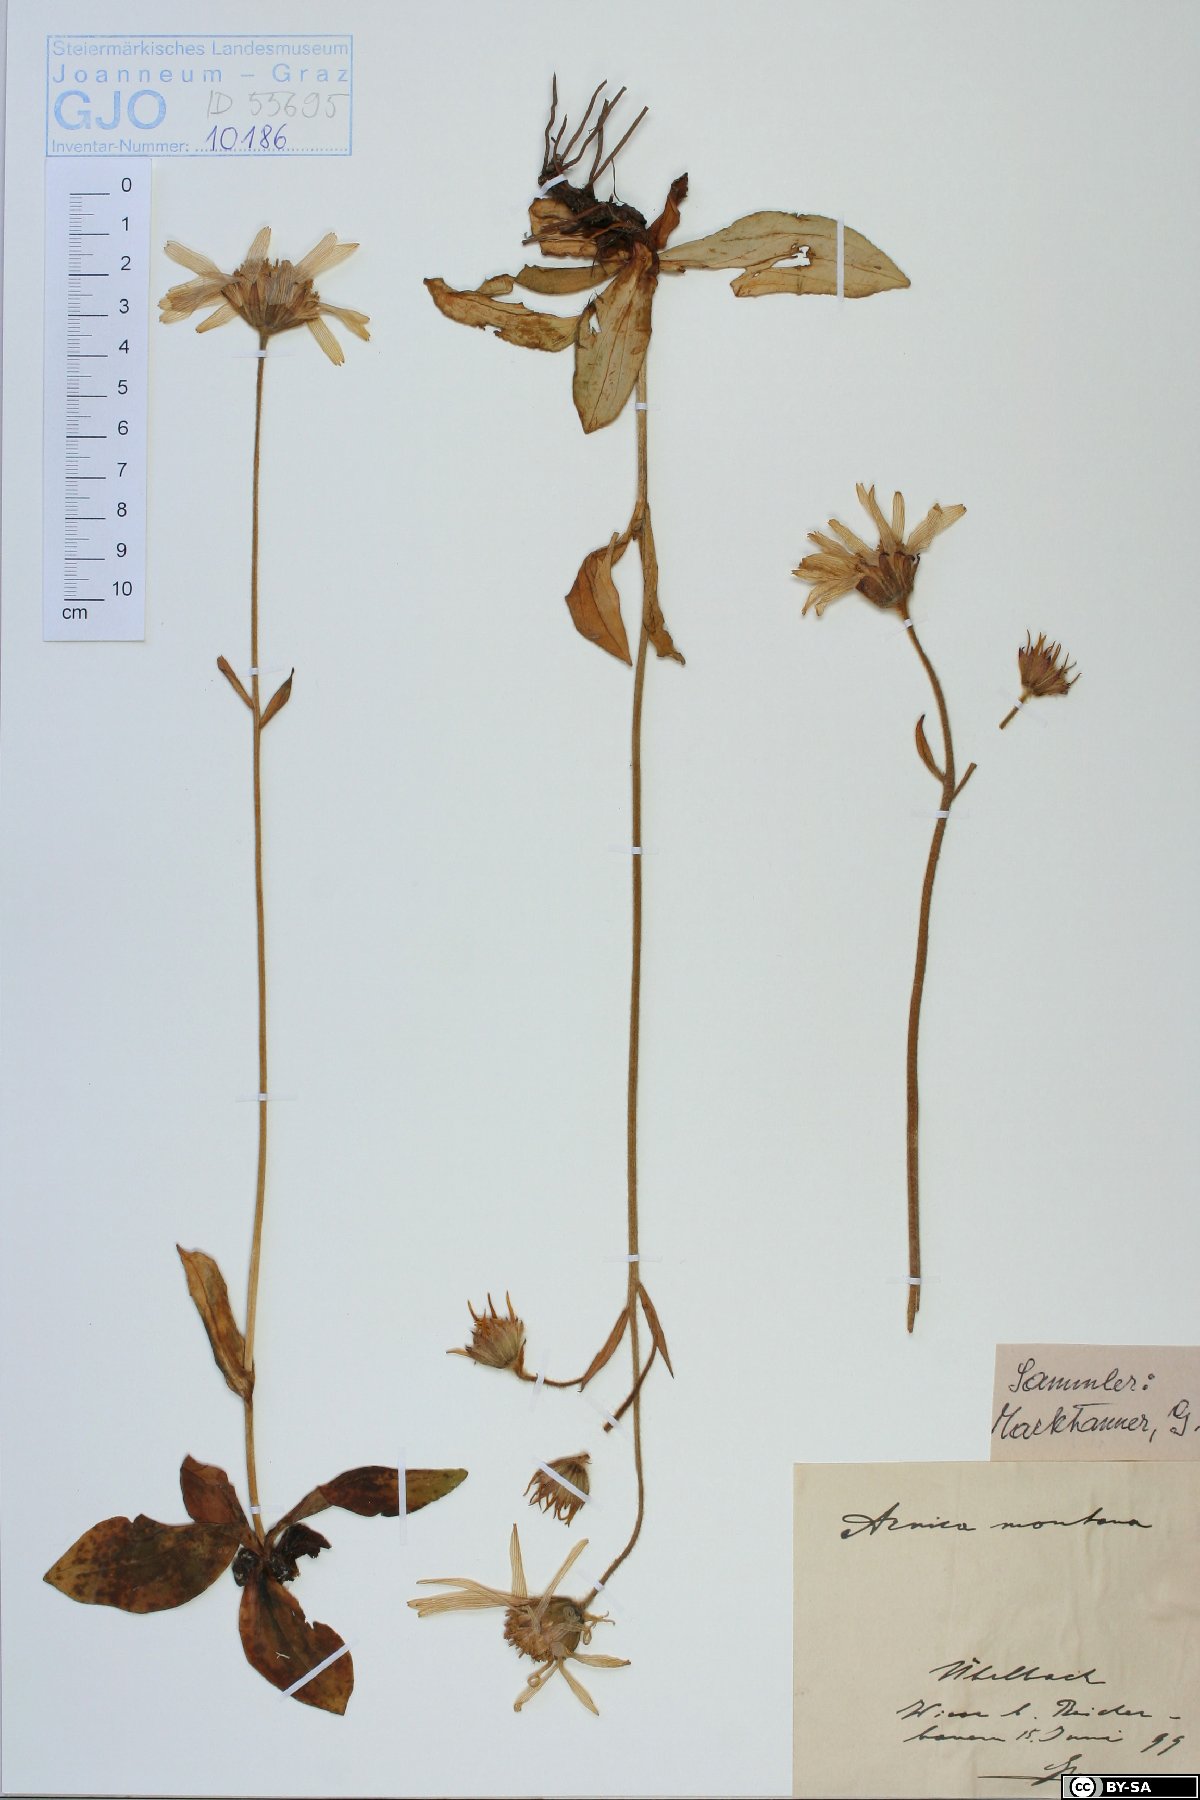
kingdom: Plantae
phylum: Tracheophyta
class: Magnoliopsida
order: Asterales
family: Asteraceae
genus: Arnica
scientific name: Arnica montana
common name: Leopard's bane
